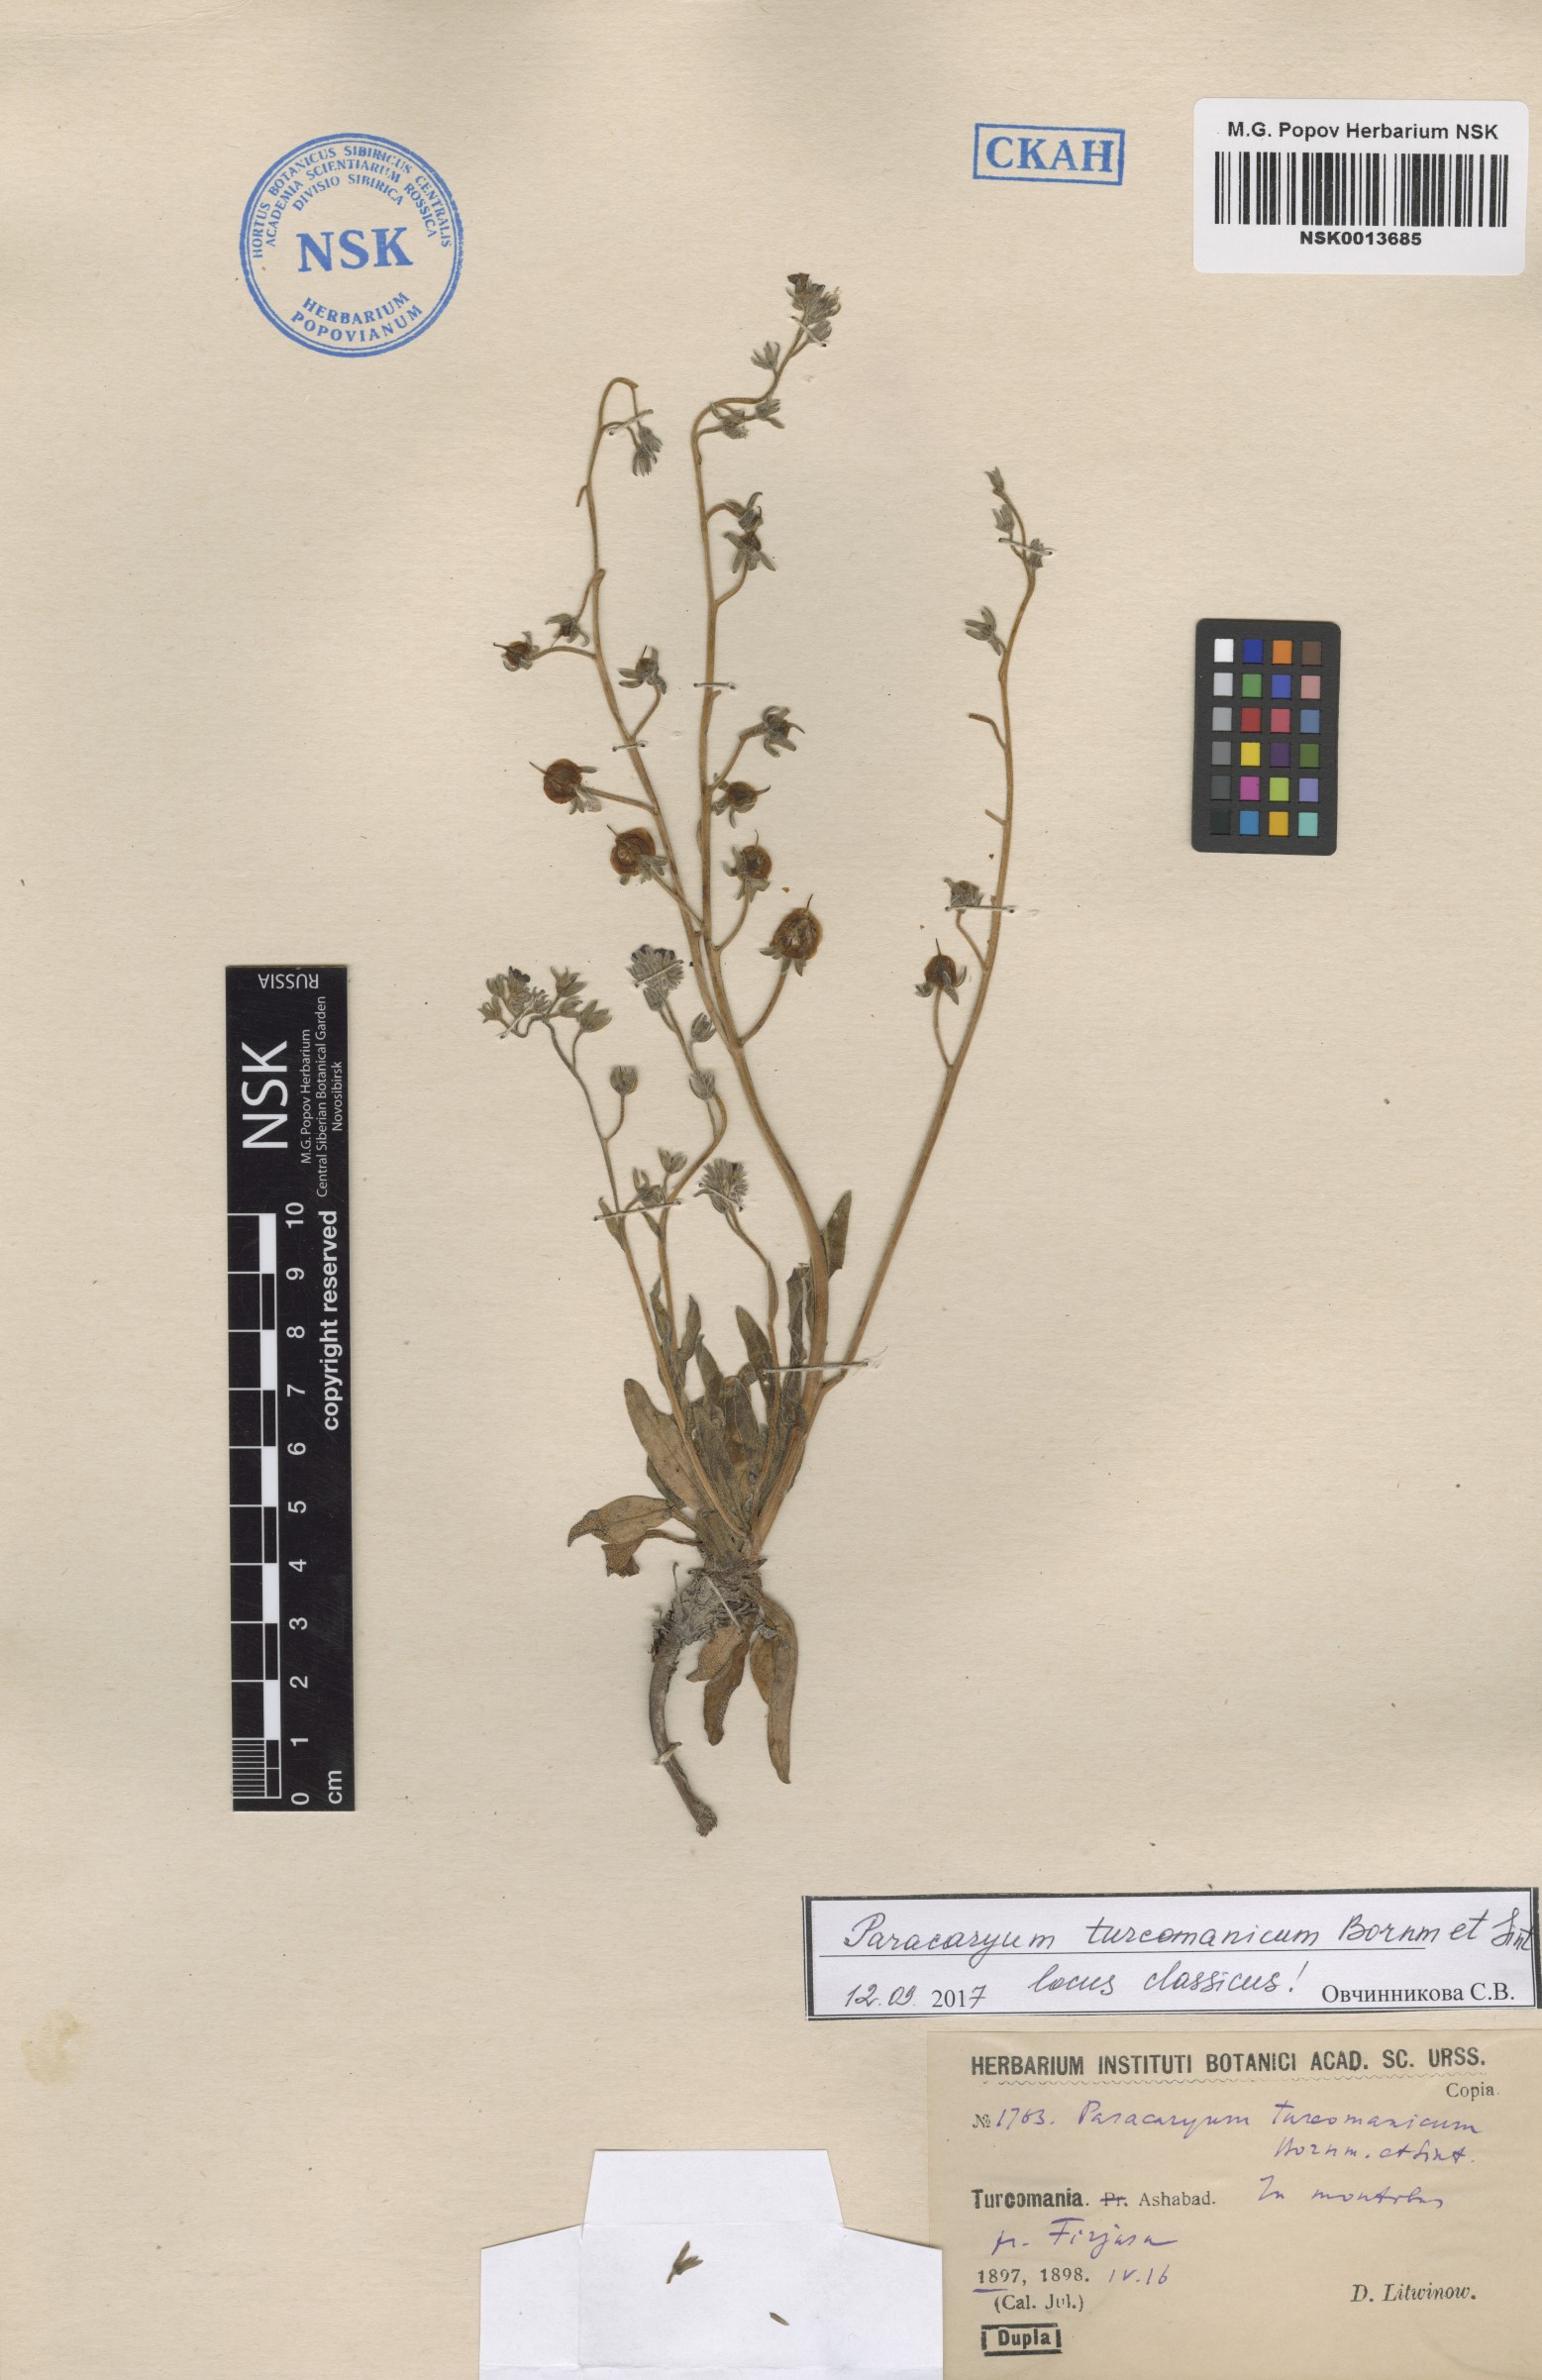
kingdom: Plantae
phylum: Tracheophyta
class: Magnoliopsida
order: Boraginales
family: Boraginaceae
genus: Paracaryum
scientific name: Paracaryum turcomanicum
